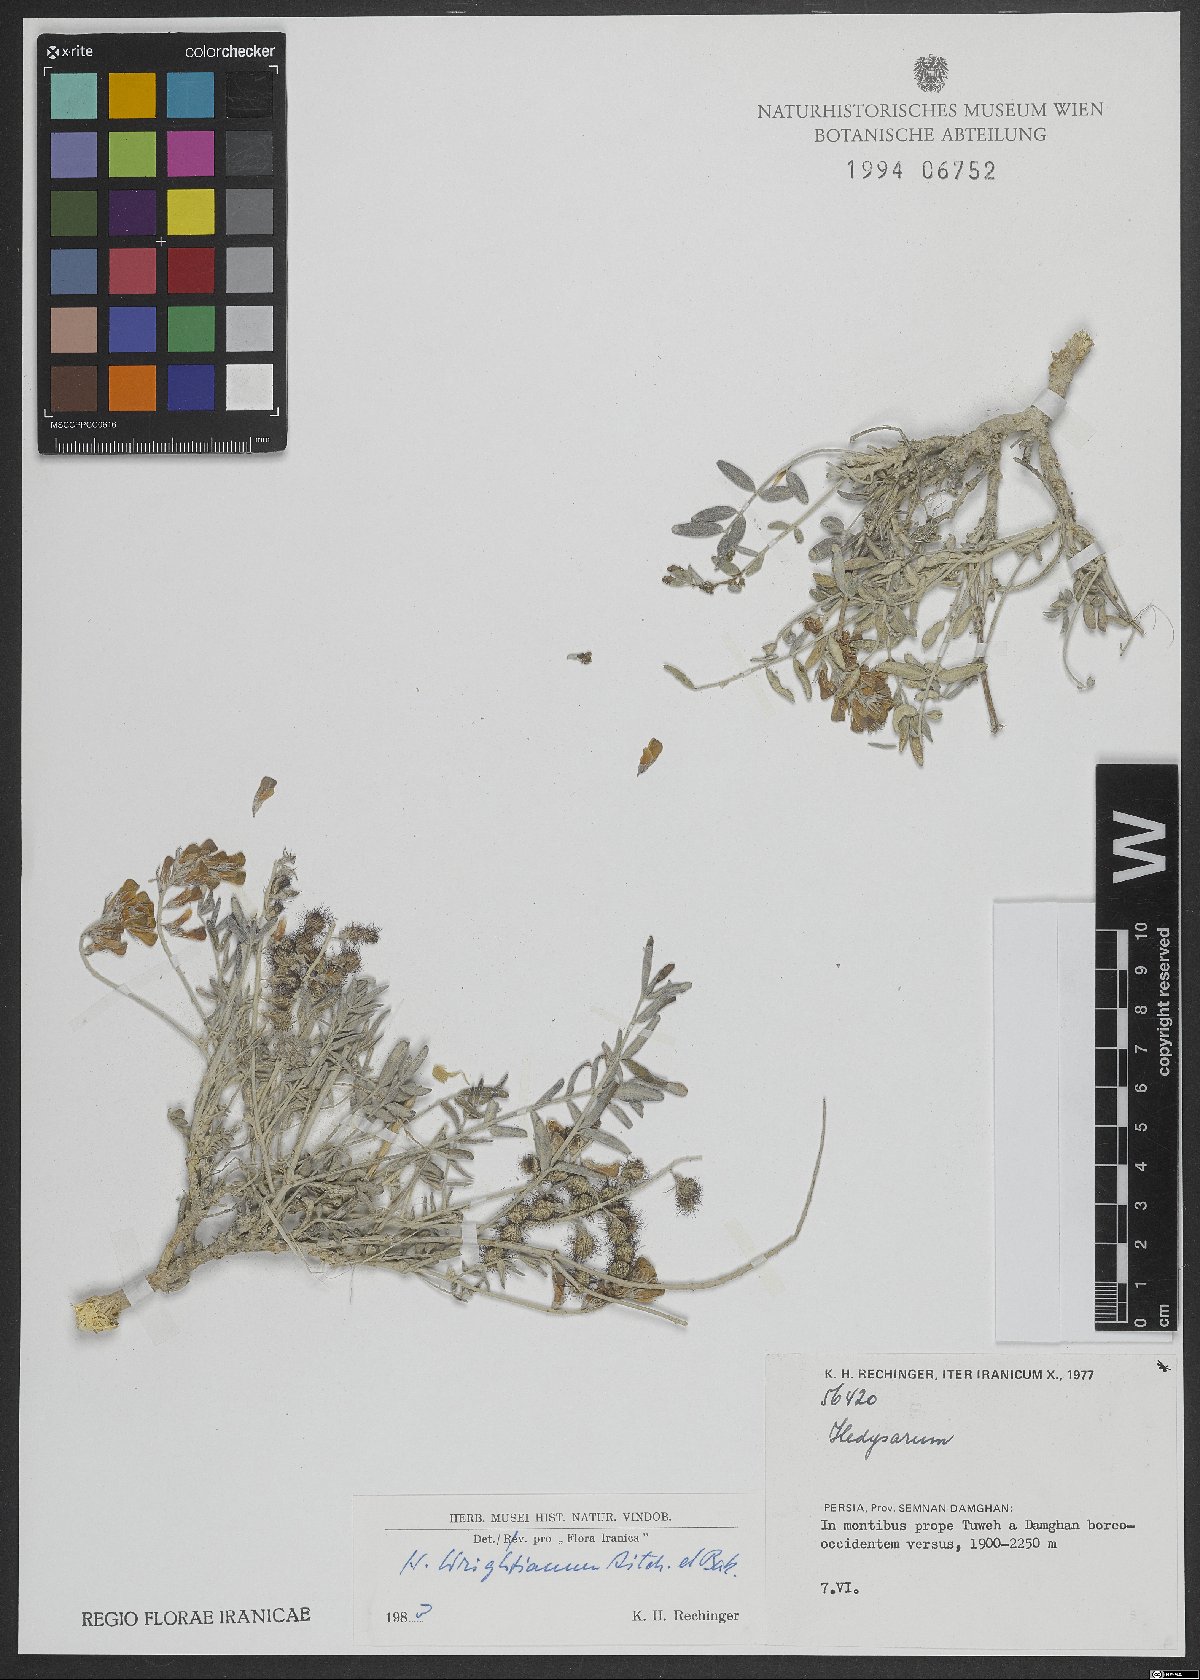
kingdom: Plantae
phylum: Tracheophyta
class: Magnoliopsida
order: Fabales
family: Fabaceae
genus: Hedysarum
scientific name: Hedysarum micropterum
